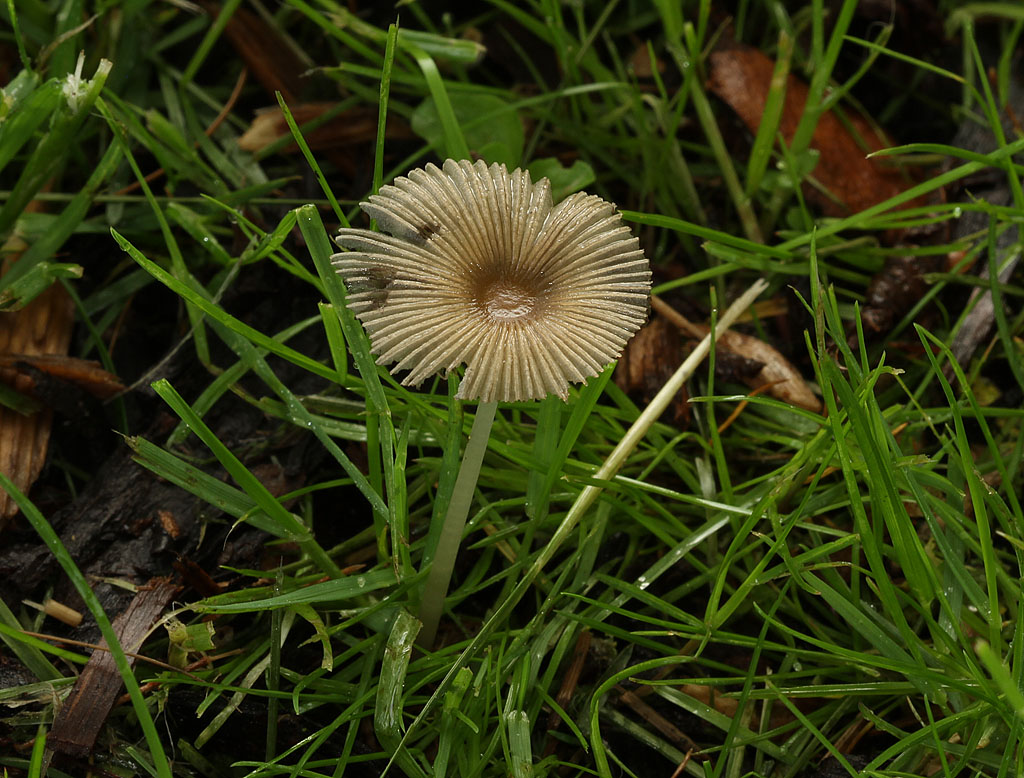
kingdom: Fungi
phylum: Basidiomycota
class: Agaricomycetes
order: Agaricales
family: Psathyrellaceae
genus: Parasola
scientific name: Parasola kuehneri
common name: skygge-hjulhat
